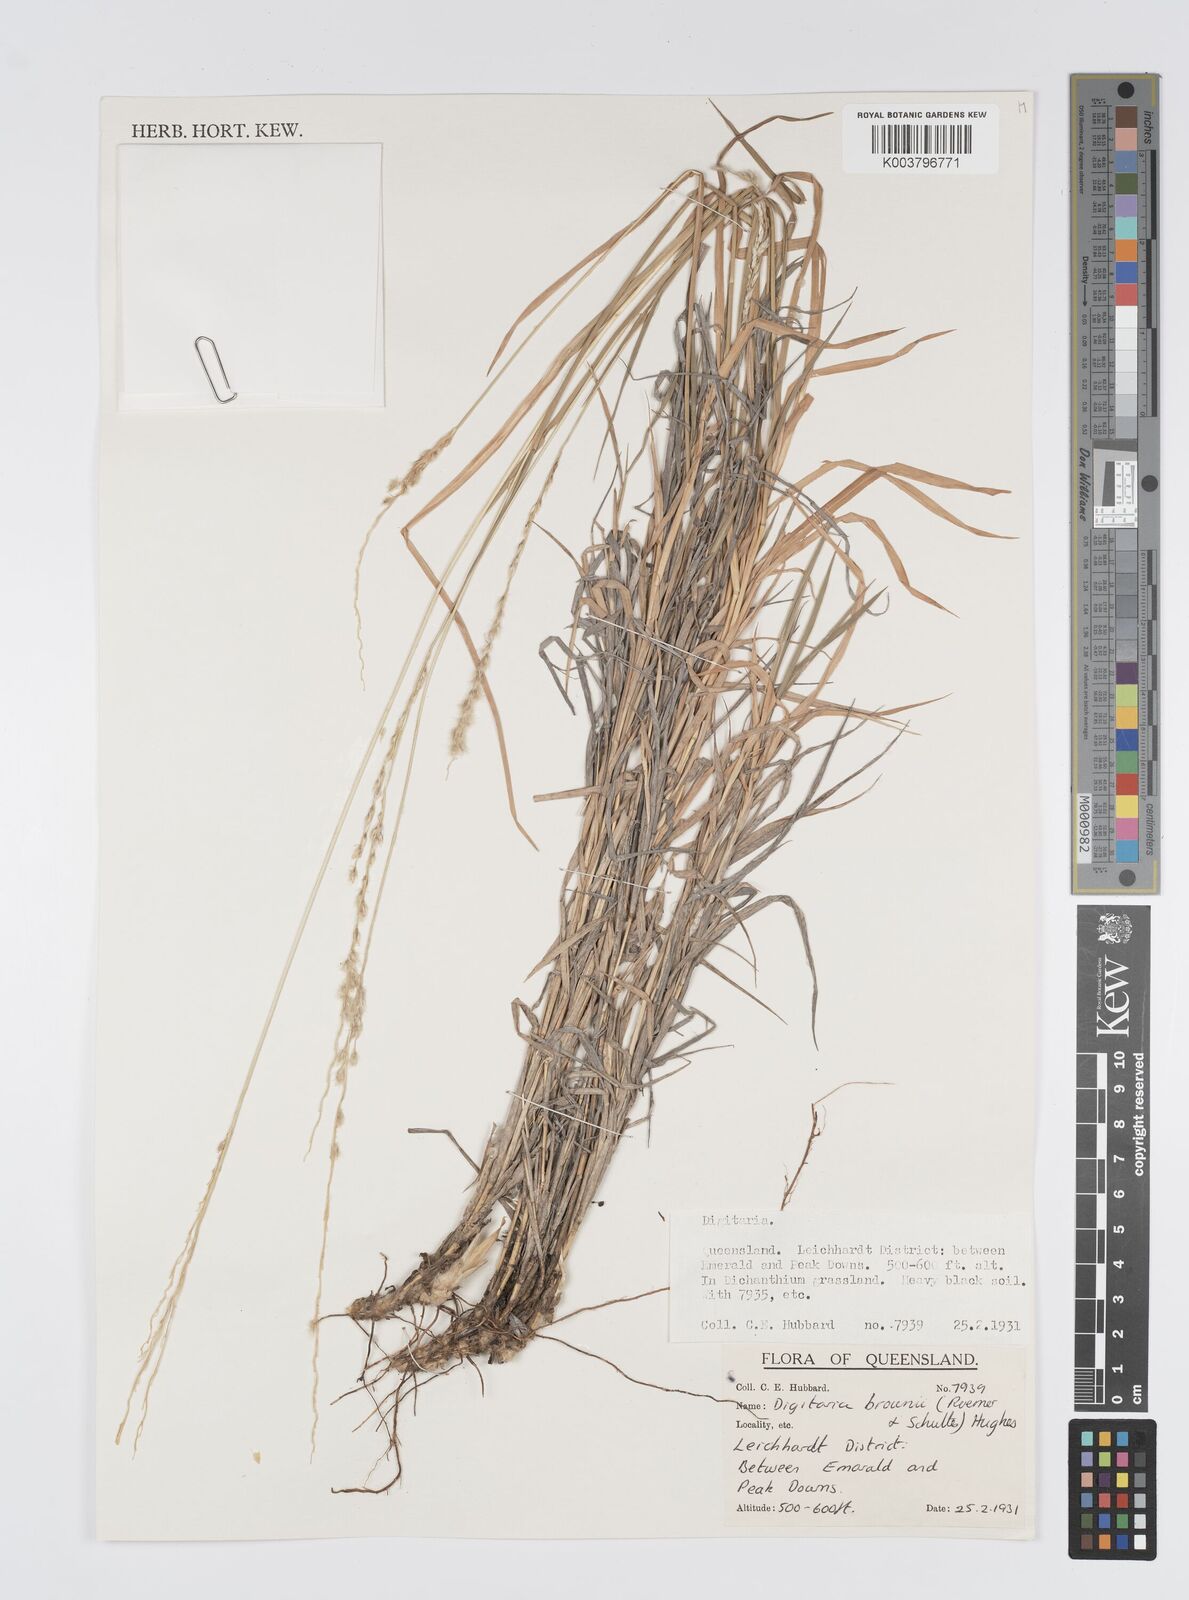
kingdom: Plantae
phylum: Tracheophyta
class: Liliopsida
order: Poales
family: Poaceae
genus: Digitaria
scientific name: Digitaria brownii
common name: Cotton grass
